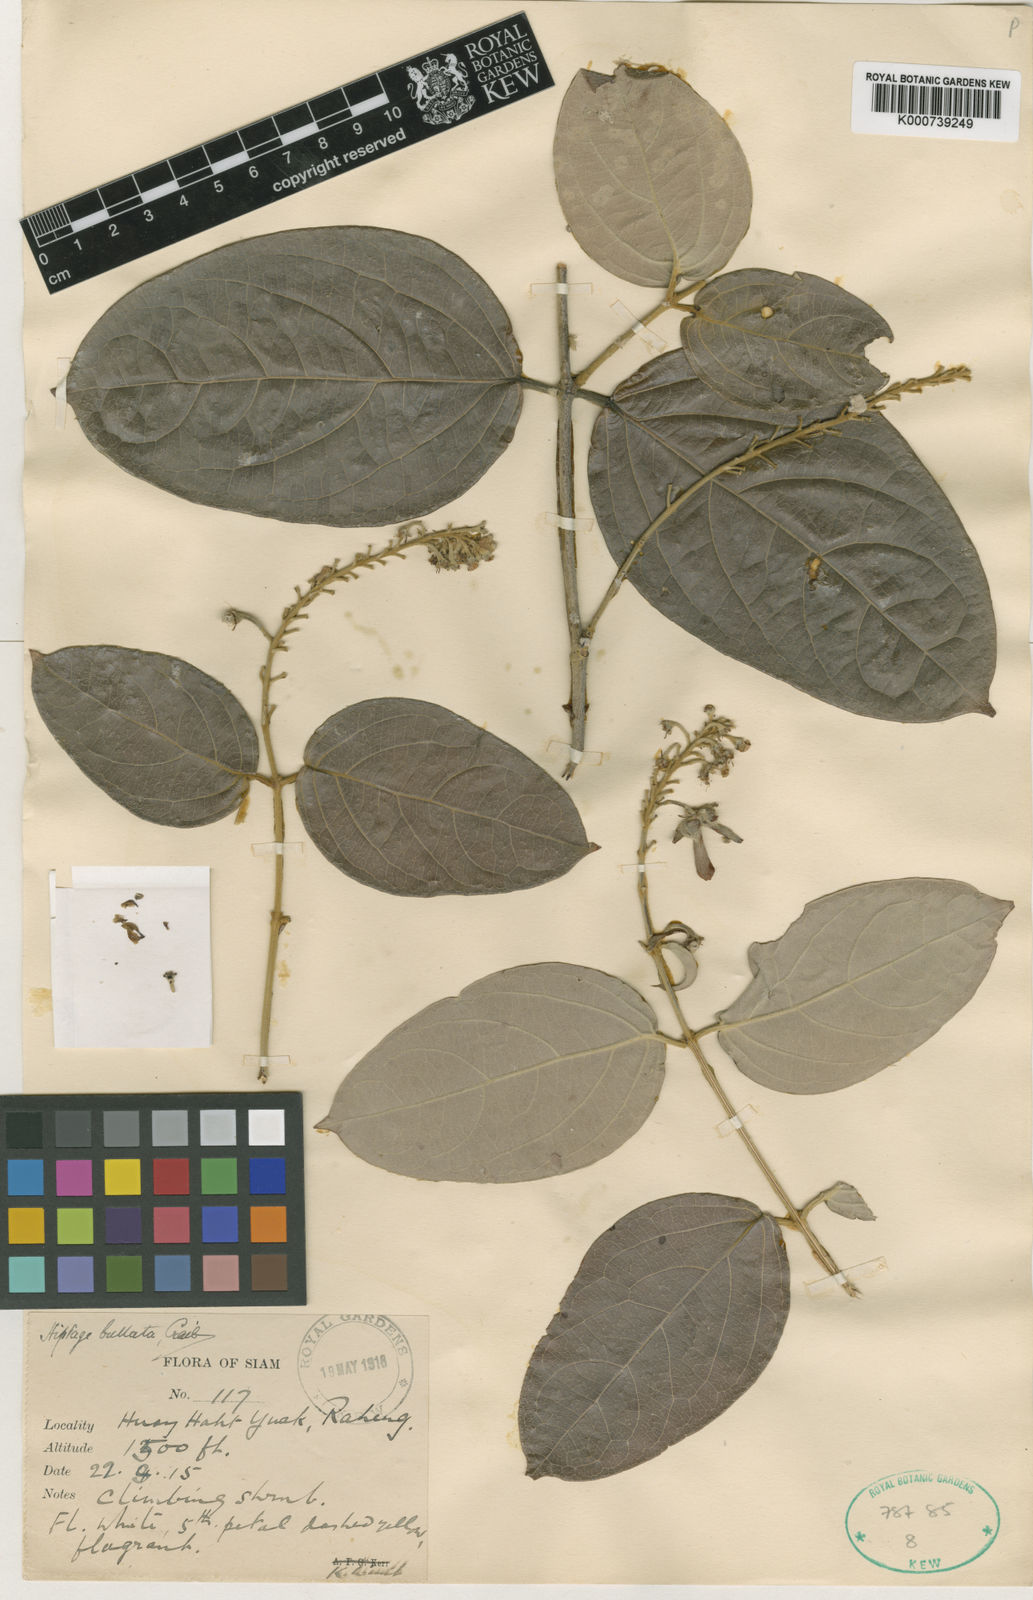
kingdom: Plantae
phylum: Tracheophyta
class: Magnoliopsida
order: Malpighiales
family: Malpighiaceae
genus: Hiptage
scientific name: Hiptage bullata
